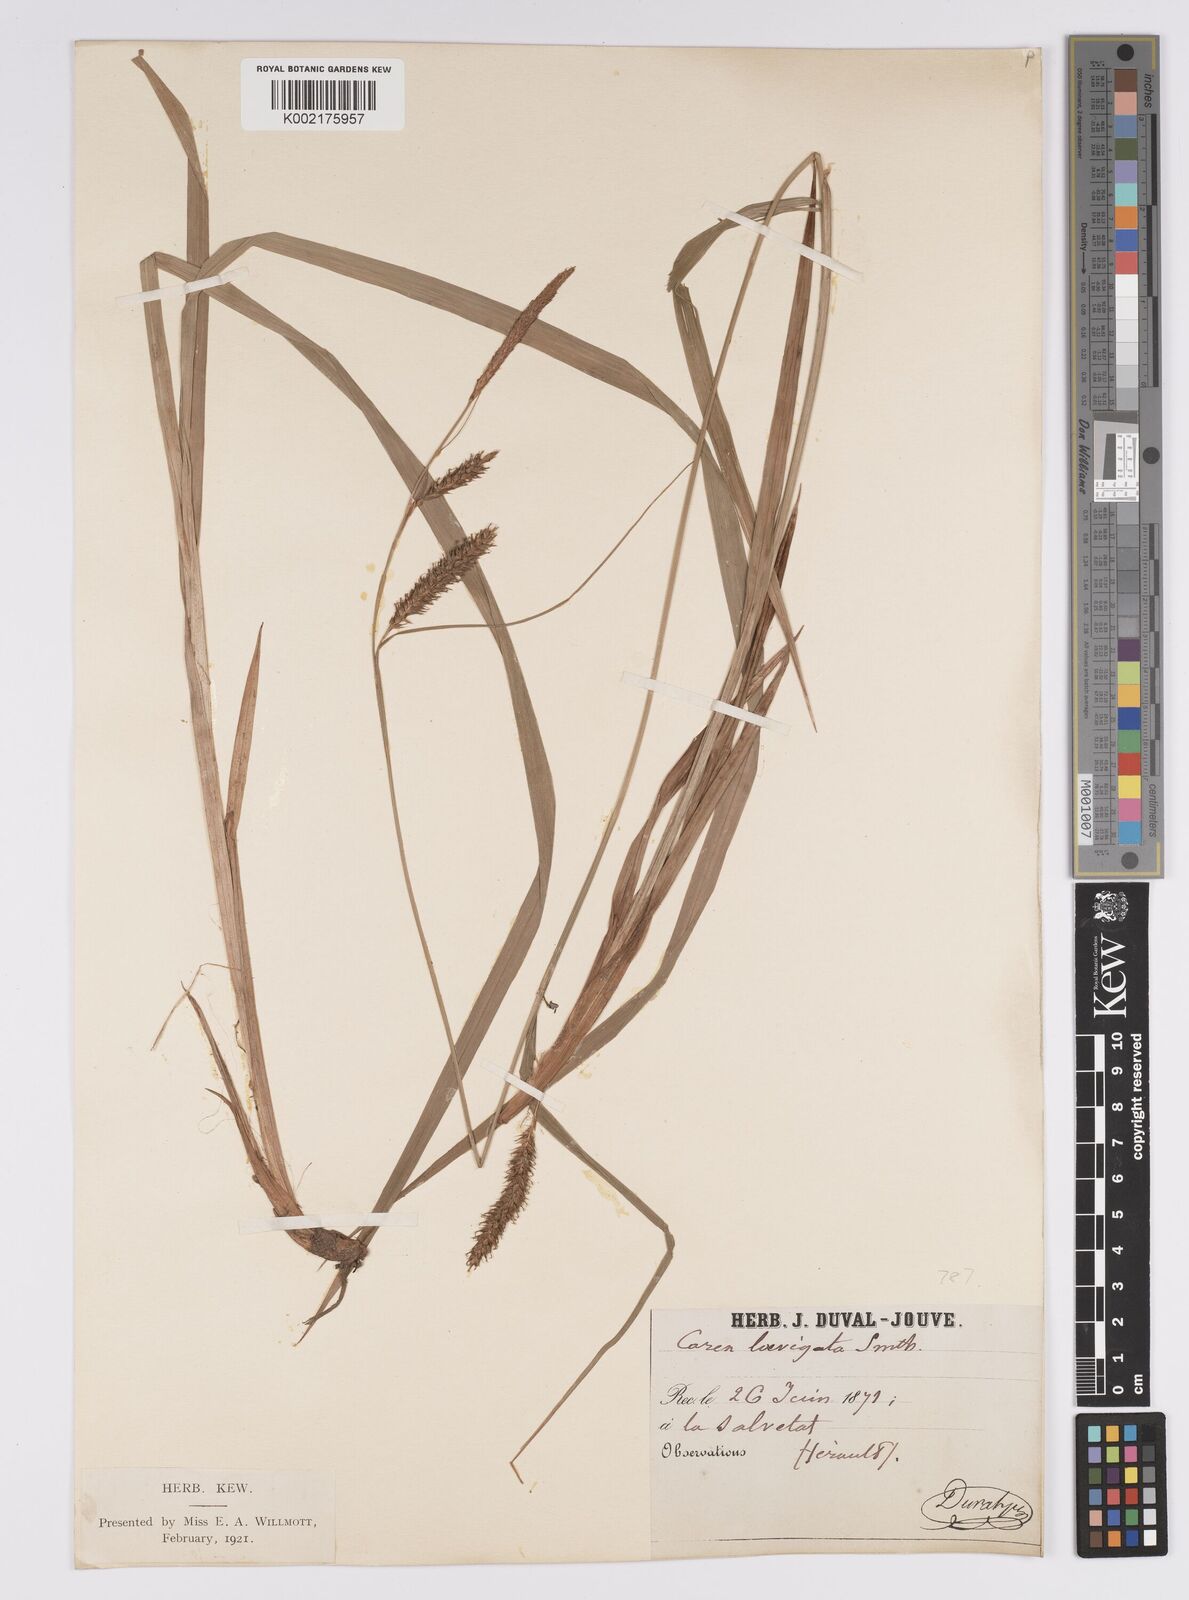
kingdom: Plantae
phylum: Tracheophyta
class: Liliopsida
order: Poales
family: Cyperaceae
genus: Carex
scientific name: Carex laevigata
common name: Smooth-stalked sedge
